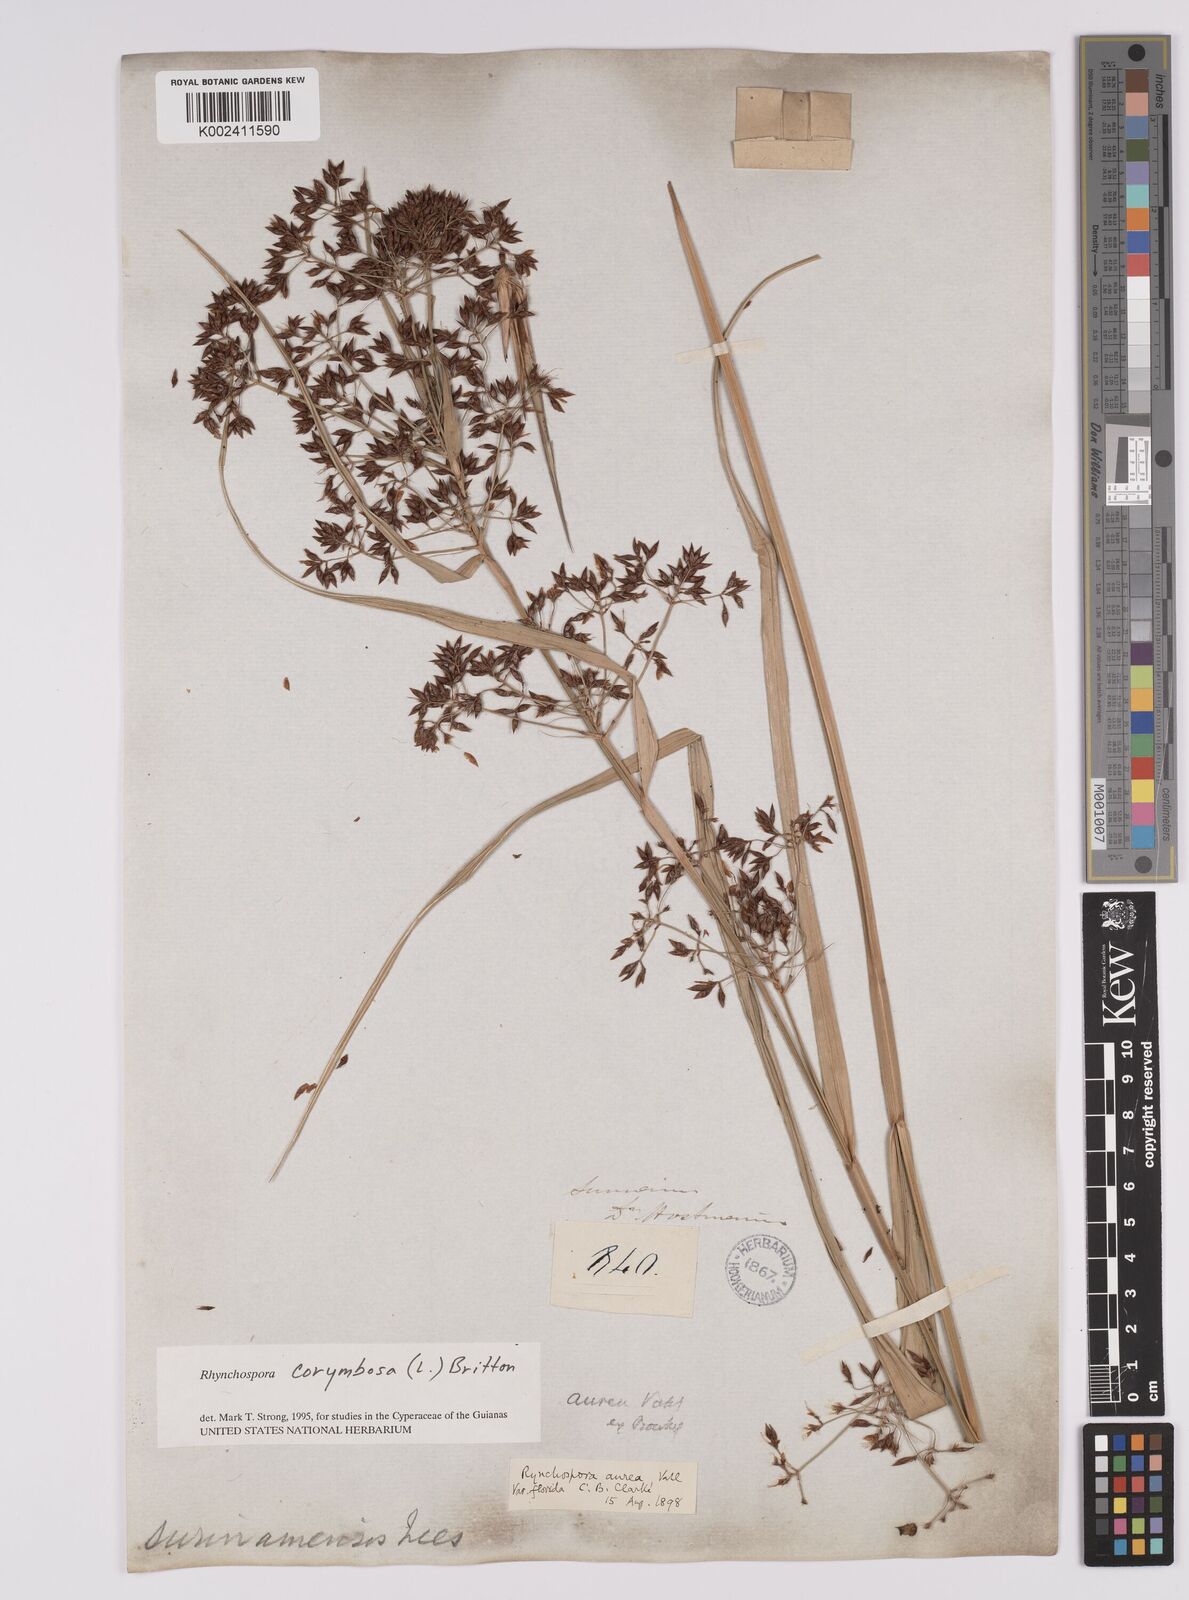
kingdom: Plantae
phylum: Tracheophyta
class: Liliopsida
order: Poales
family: Cyperaceae
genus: Rhynchospora
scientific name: Rhynchospora corymbosa
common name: Golden beak sedge
